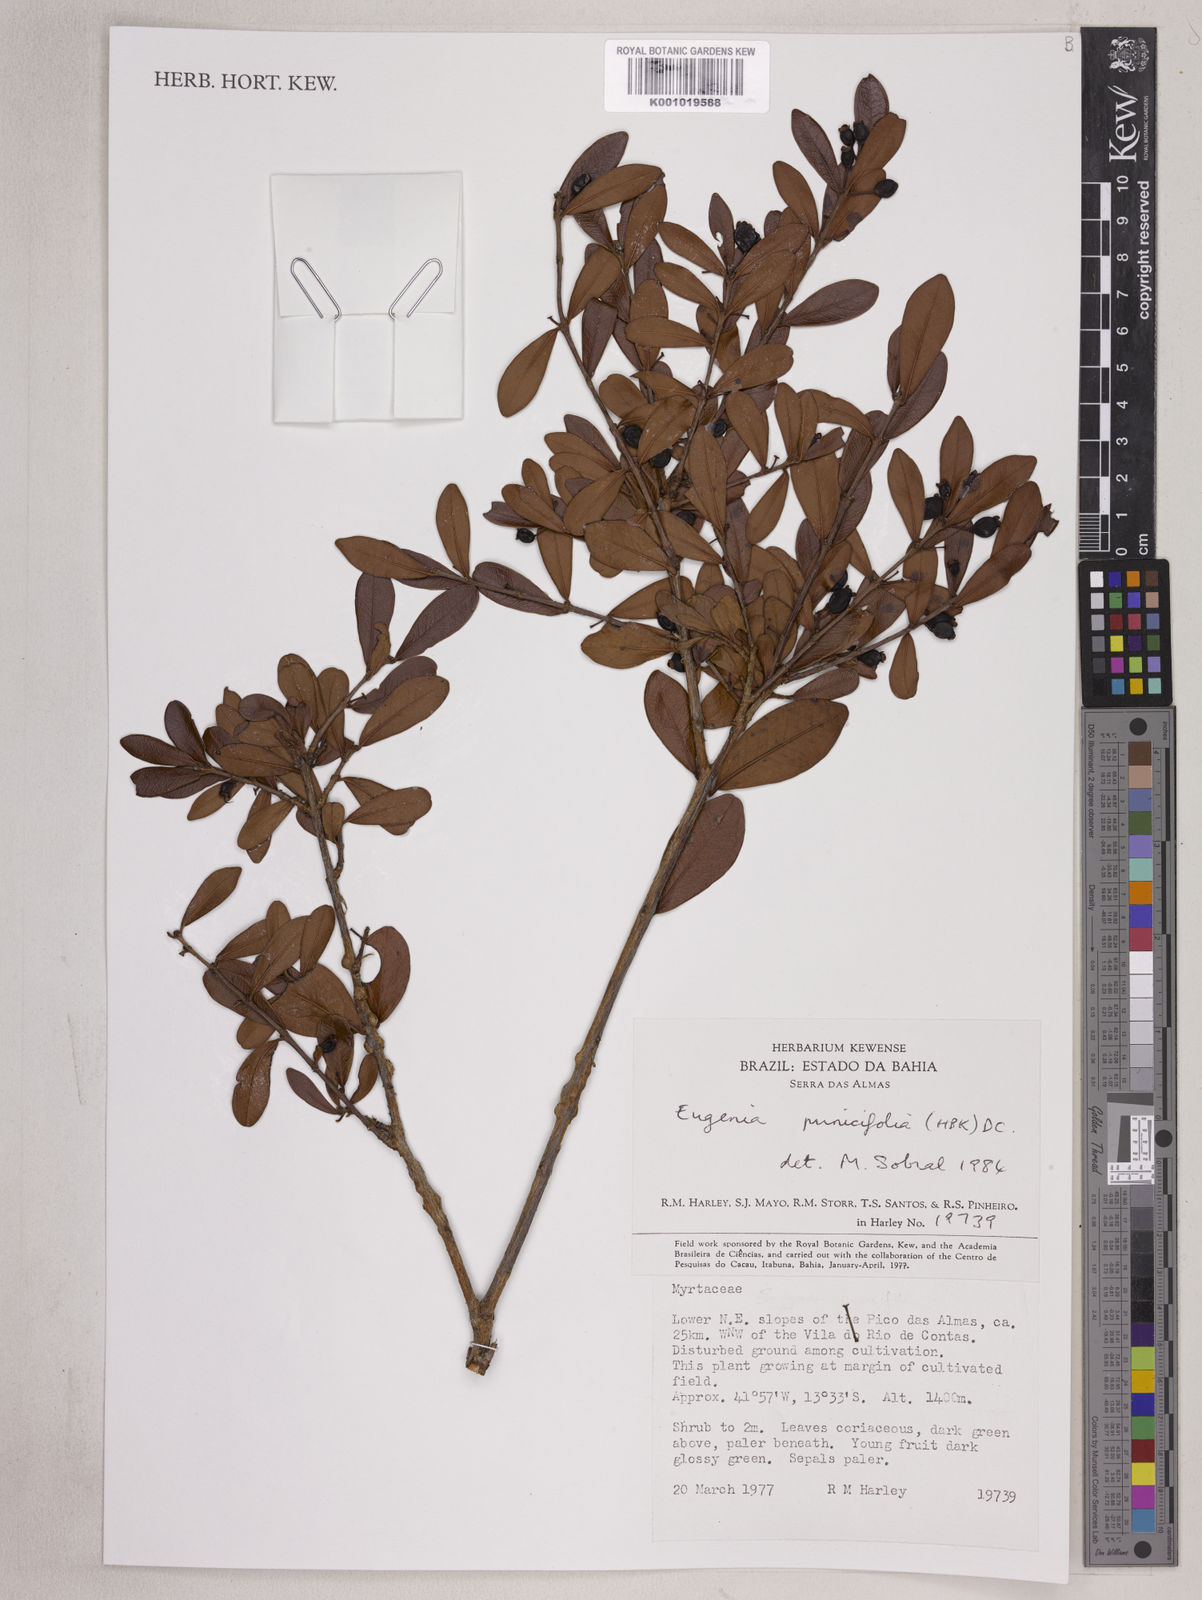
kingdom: Plantae
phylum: Tracheophyta
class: Magnoliopsida
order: Myrtales
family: Myrtaceae
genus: Eugenia
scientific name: Eugenia punicifolia
